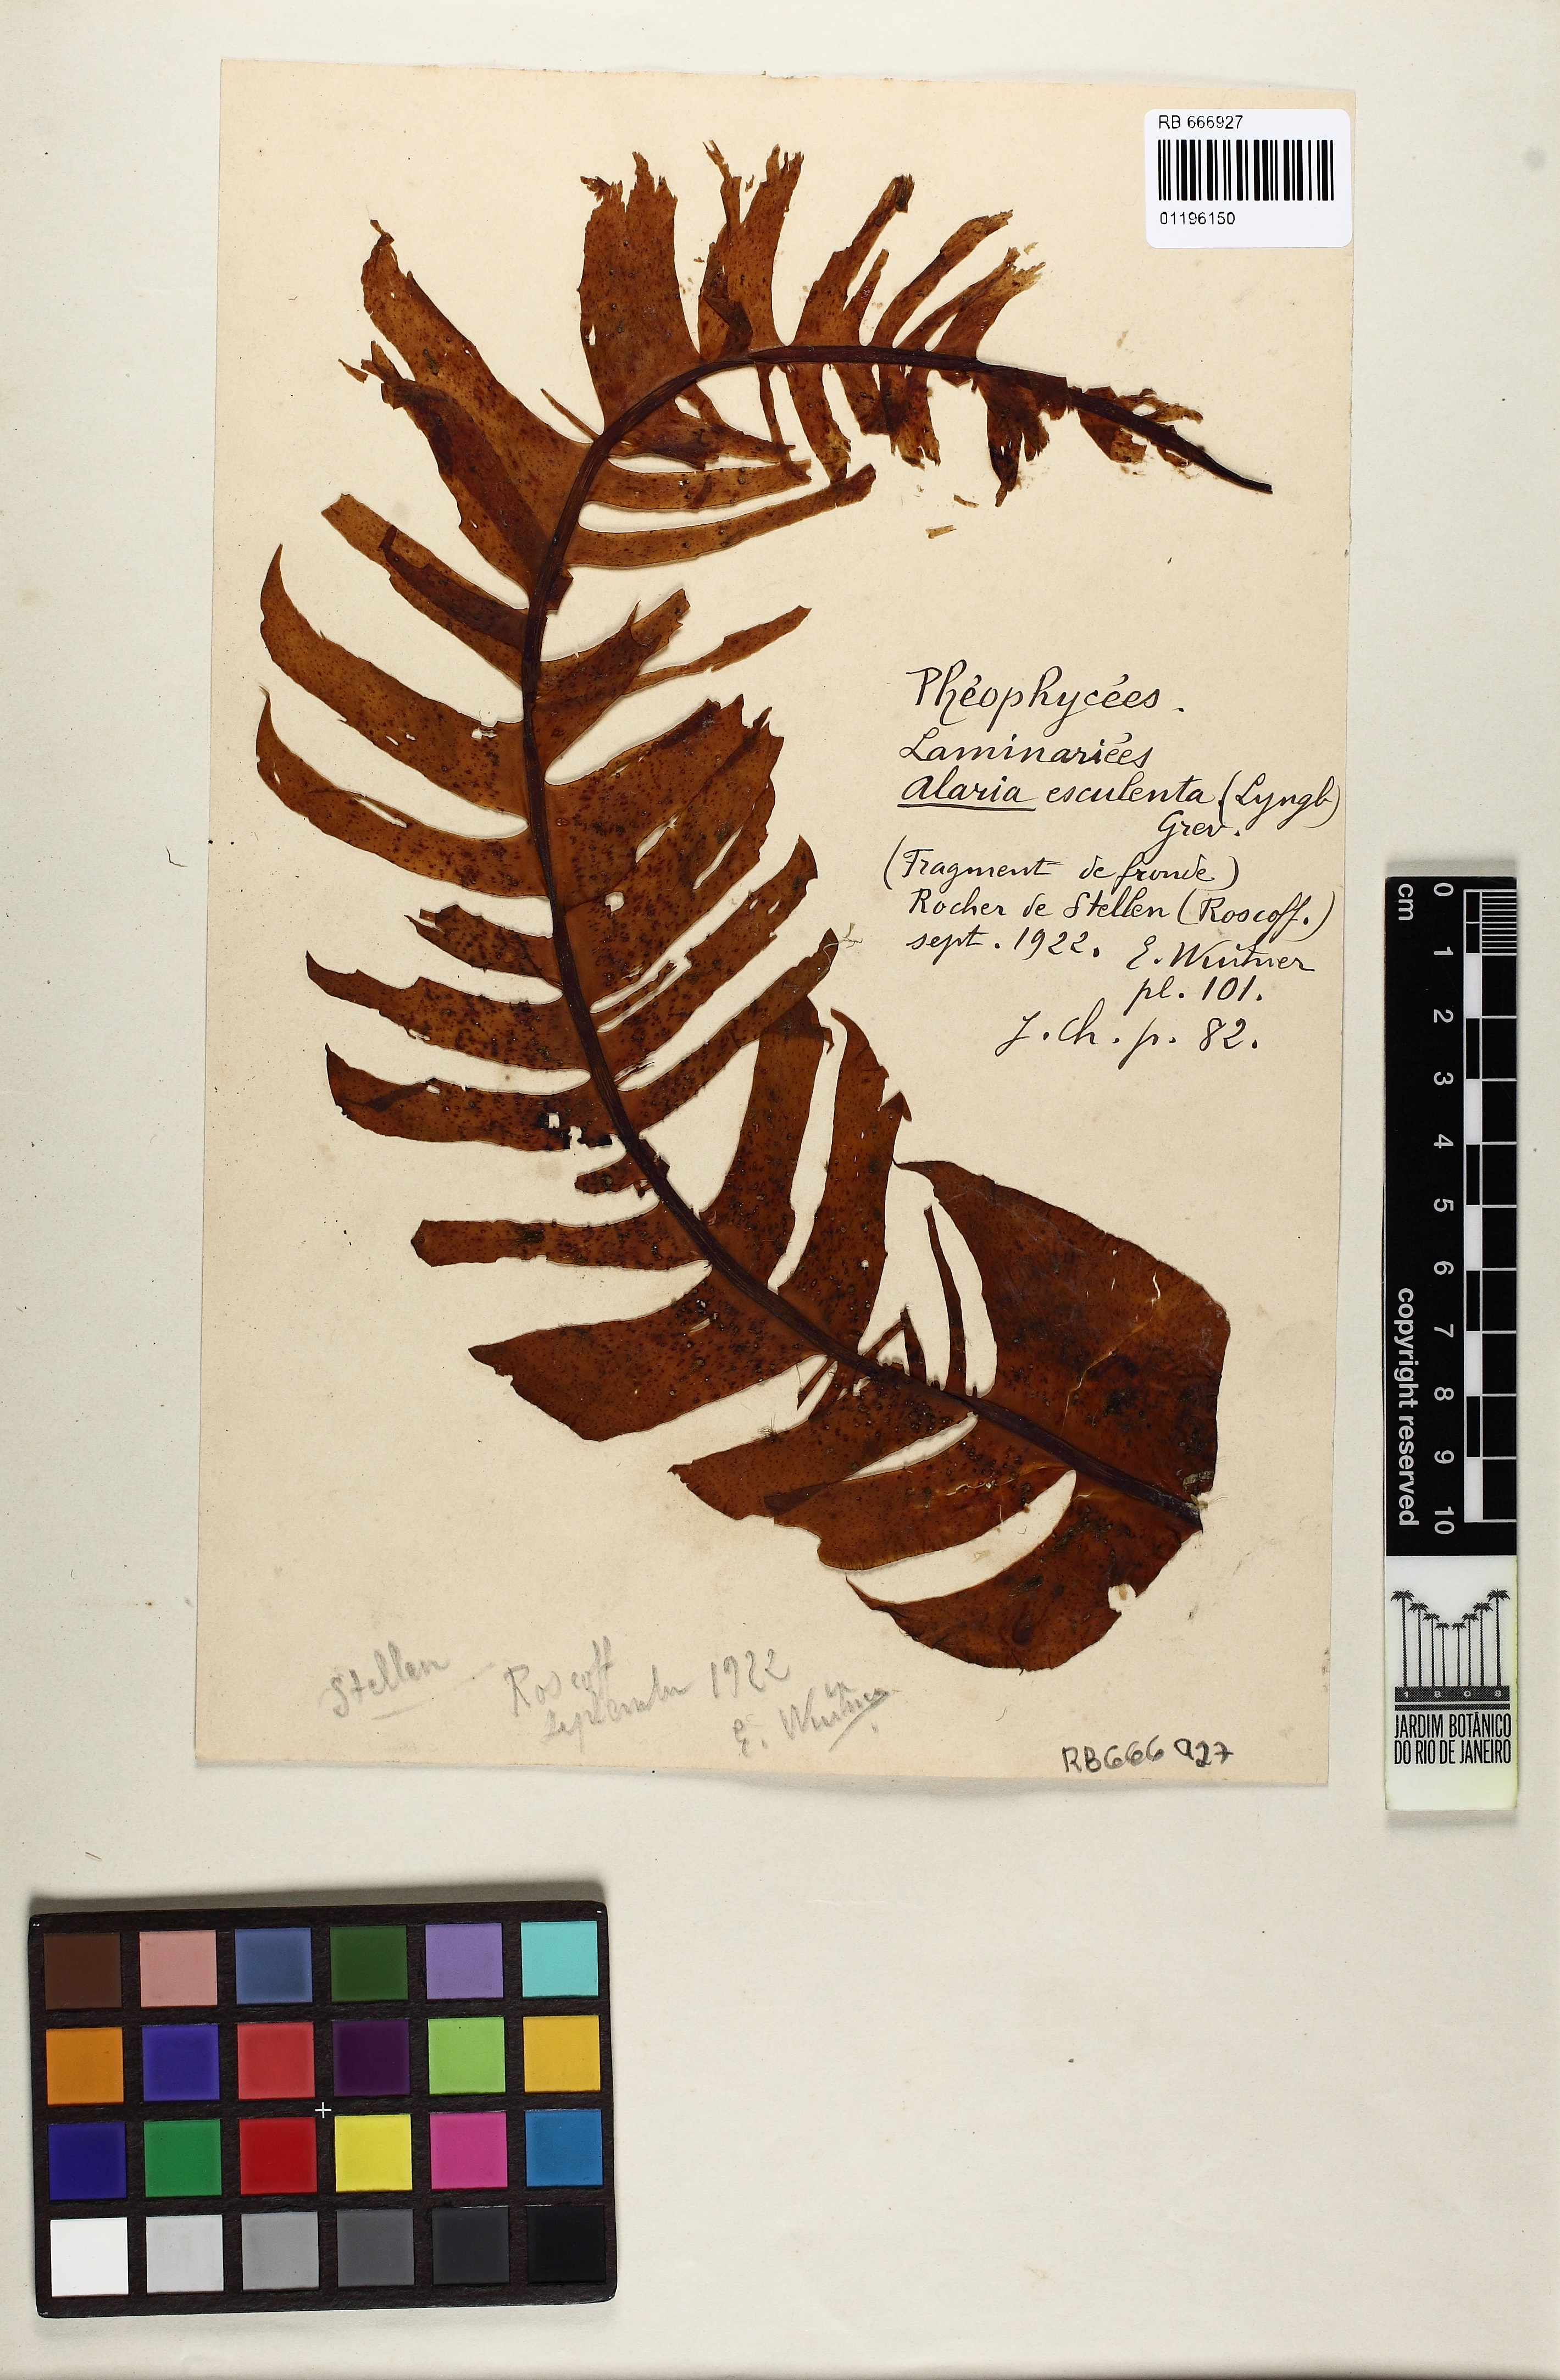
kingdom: Chromista
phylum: Ochrophyta
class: Phaeophyceae
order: Laminariales
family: Alariaceae
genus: Alaria
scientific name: Alaria esculenta
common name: Dabberlocks
